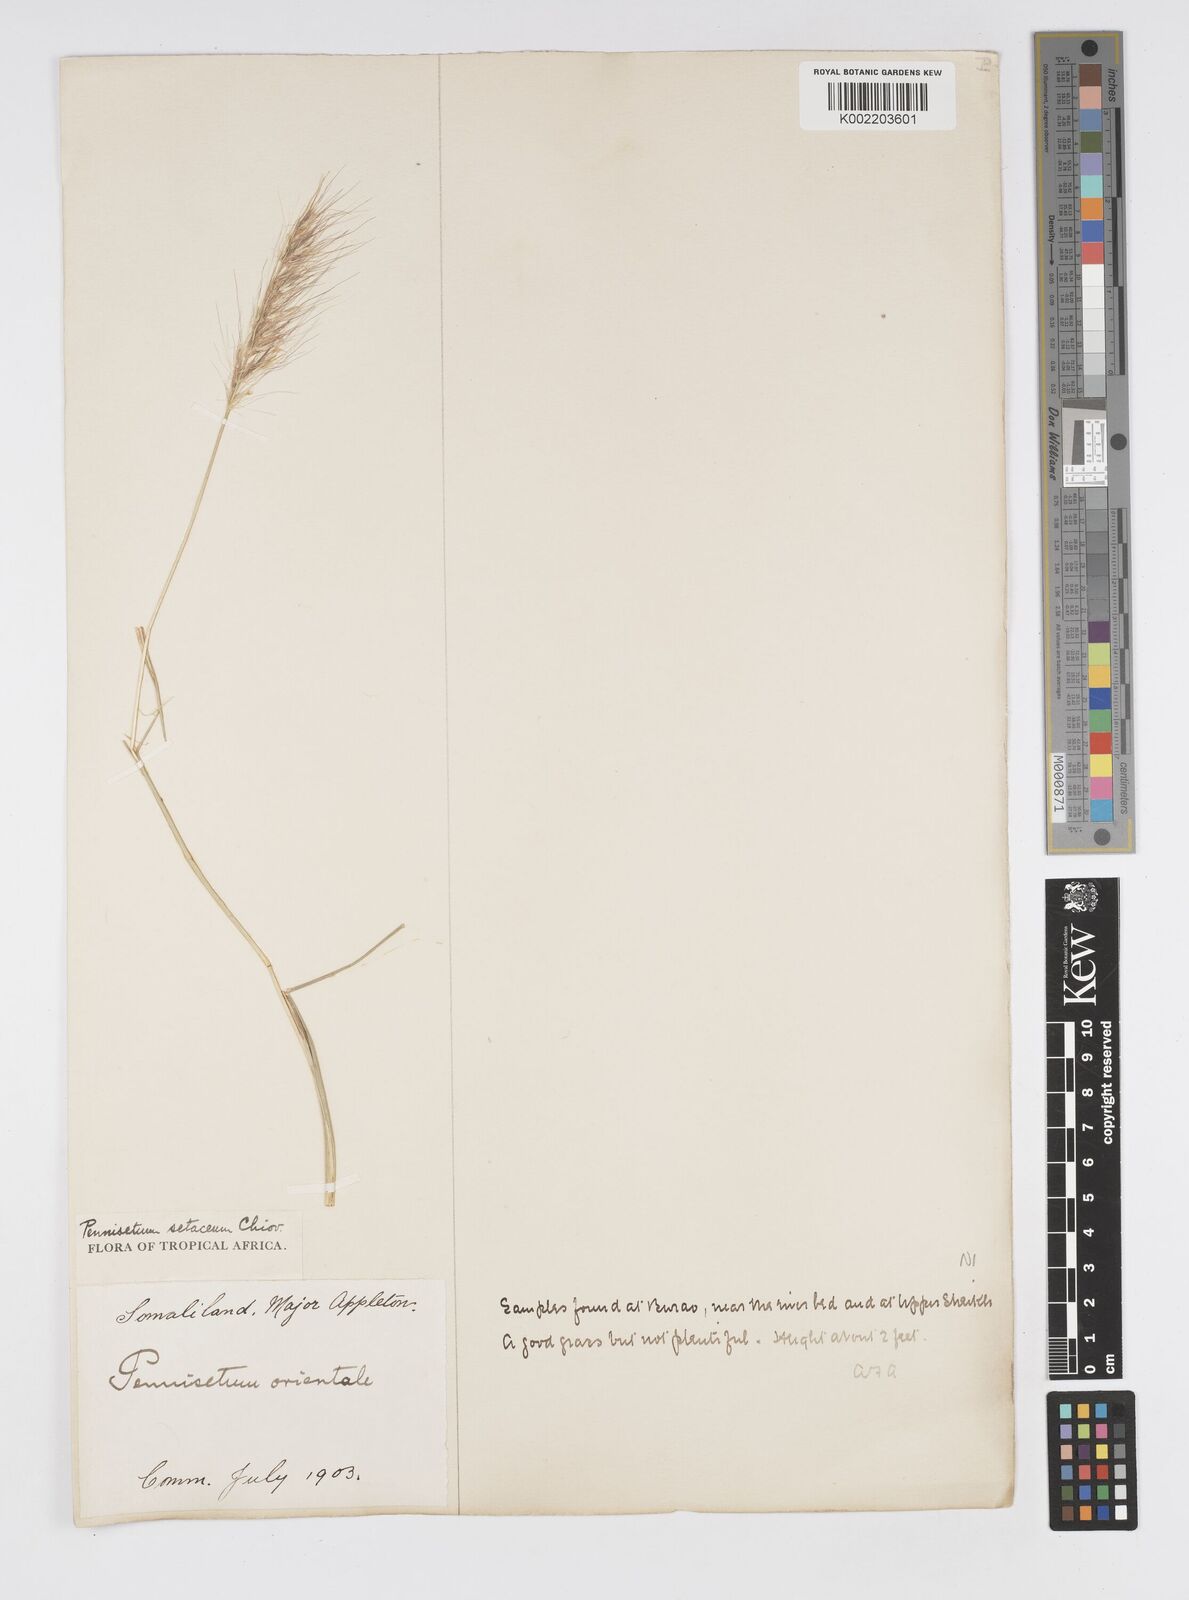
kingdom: Plantae
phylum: Tracheophyta
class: Liliopsida
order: Poales
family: Poaceae
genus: Cenchrus
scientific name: Cenchrus setaceus
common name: Crimson fountaingrass
